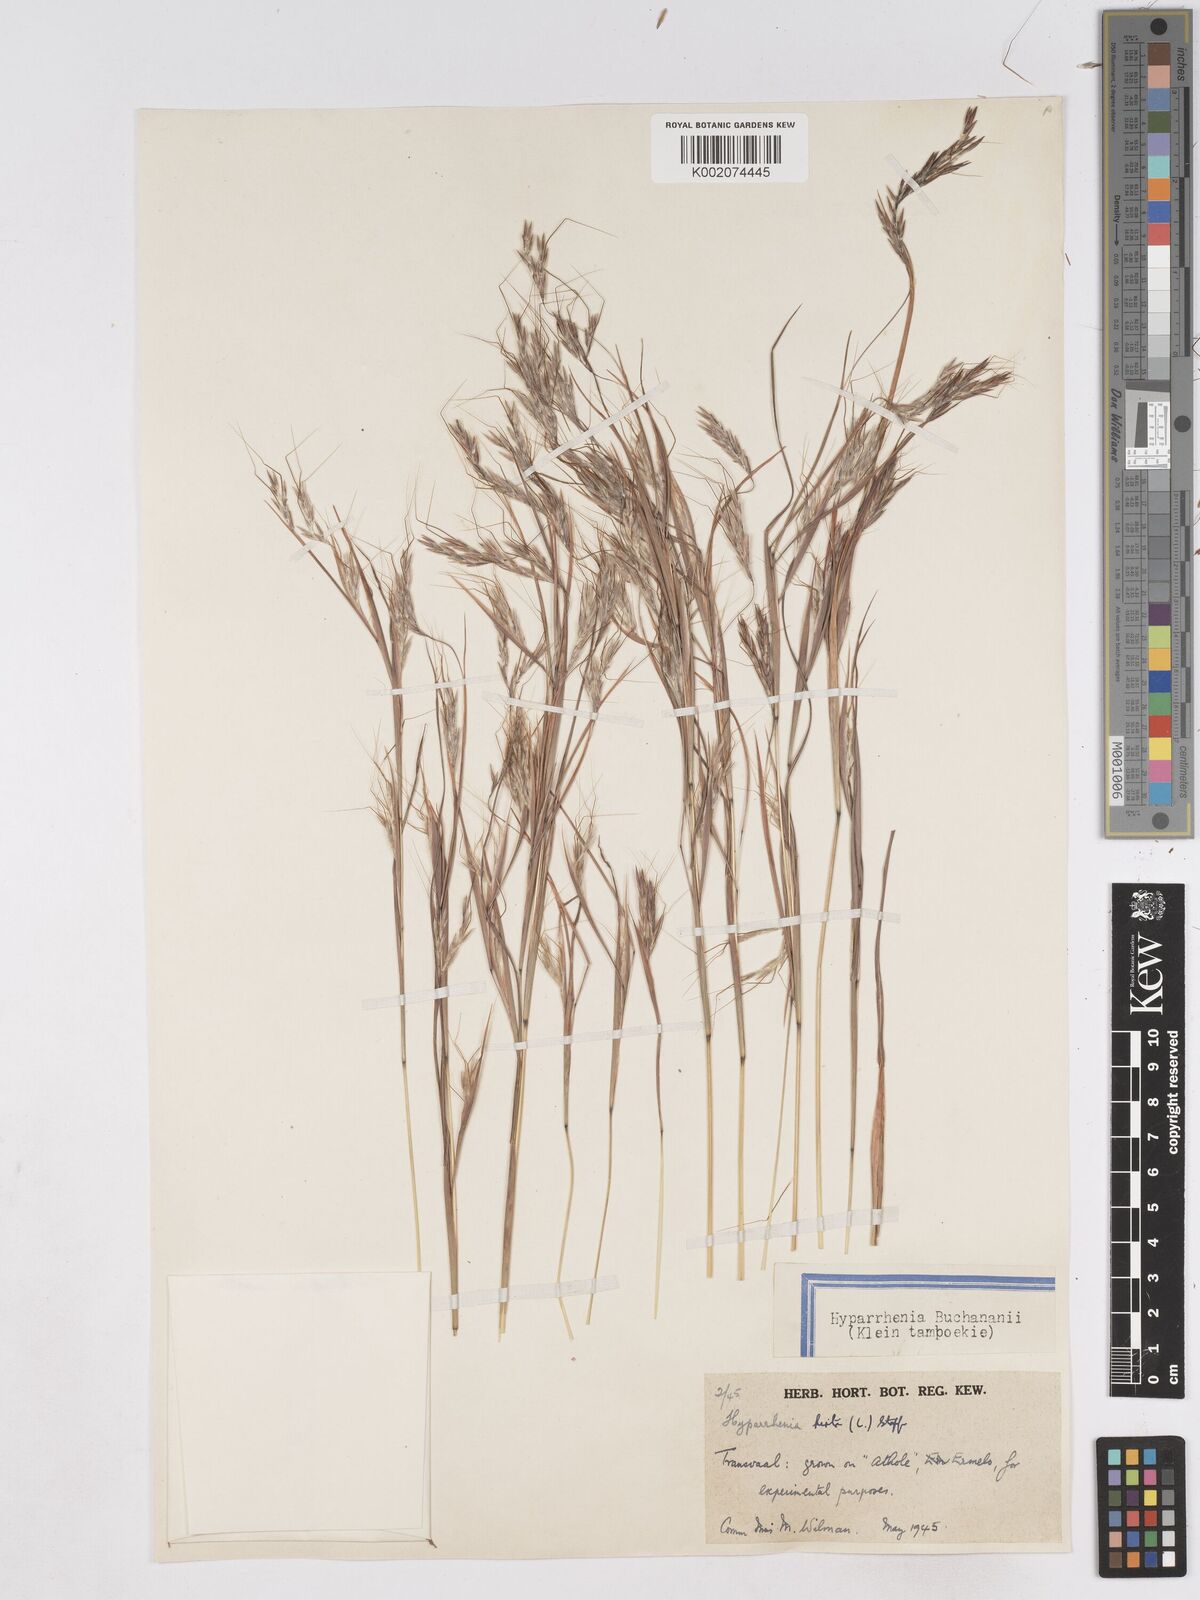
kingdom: Plantae
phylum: Tracheophyta
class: Liliopsida
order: Poales
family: Poaceae
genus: Hyparrhenia
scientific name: Hyparrhenia hirta
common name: Thatching grass
